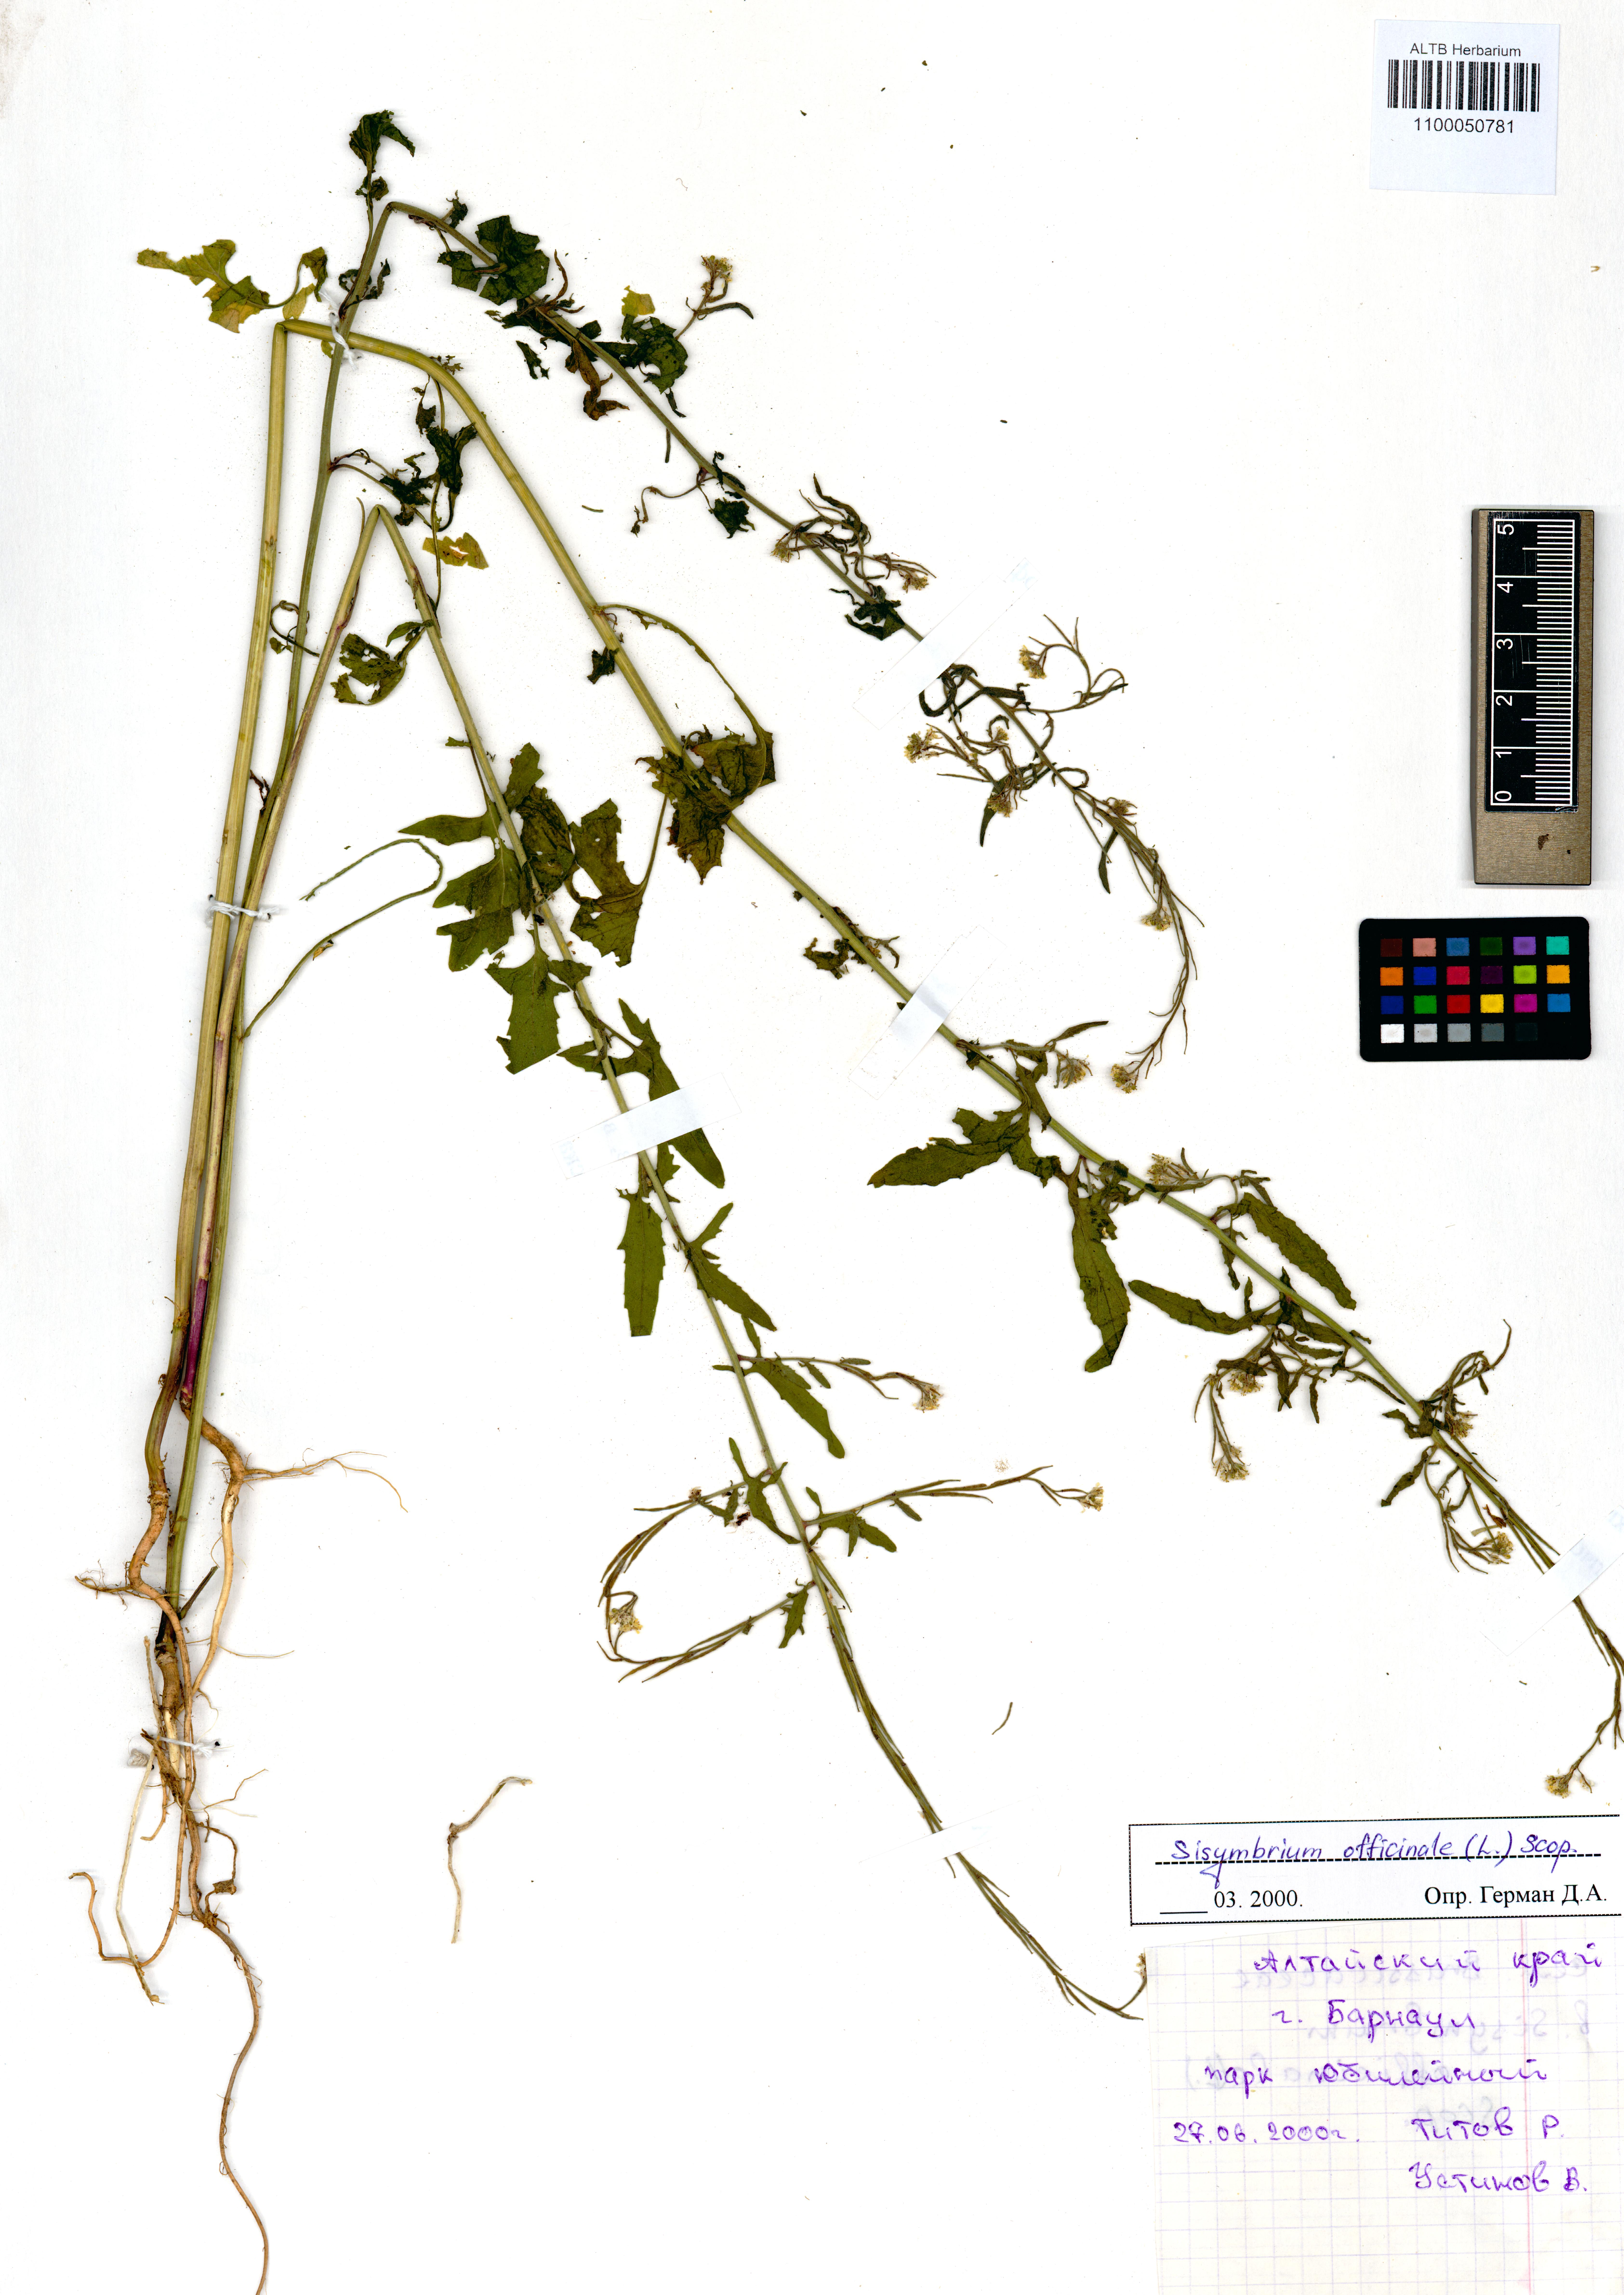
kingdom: Plantae
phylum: Tracheophyta
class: Magnoliopsida
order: Brassicales
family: Brassicaceae
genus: Sisymbrium
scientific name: Sisymbrium officinale
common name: Hedge mustard
